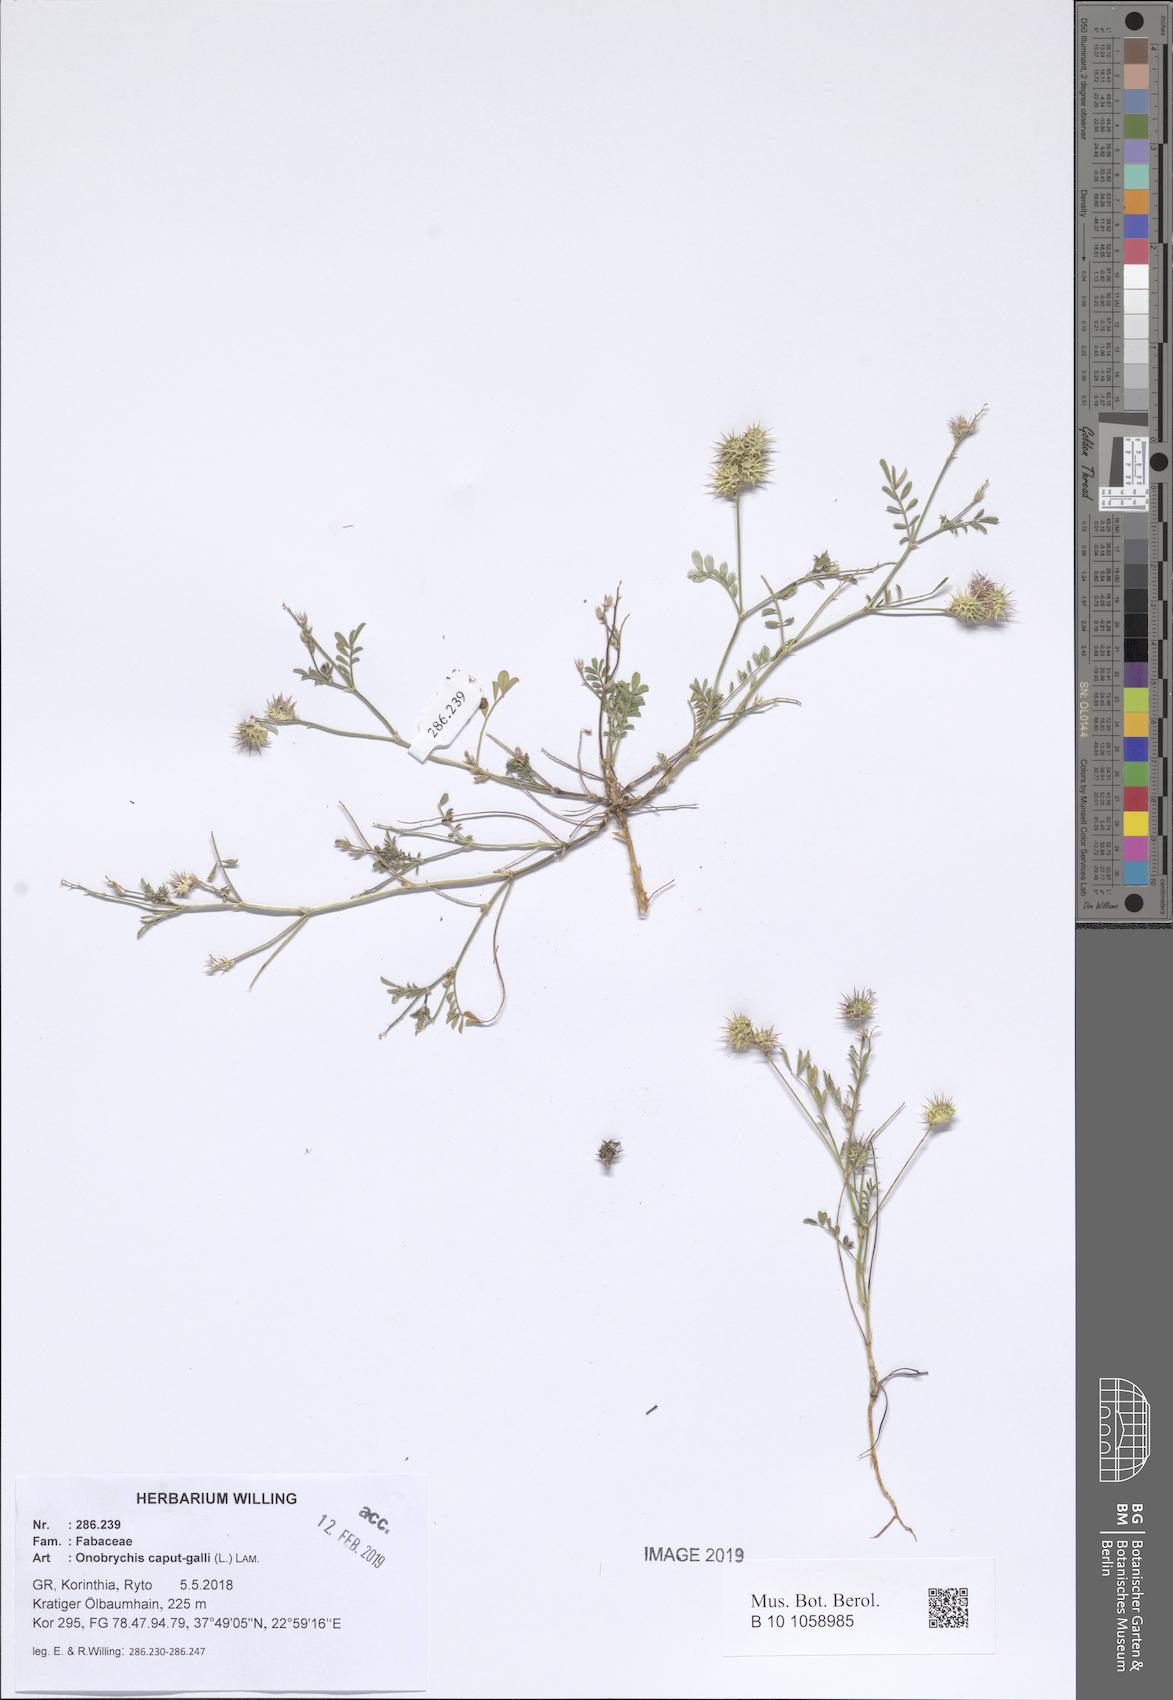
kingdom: Plantae
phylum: Tracheophyta
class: Magnoliopsida
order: Fabales
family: Fabaceae
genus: Onobrychis
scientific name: Onobrychis caput-galli
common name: Cockscomb sainfoin
